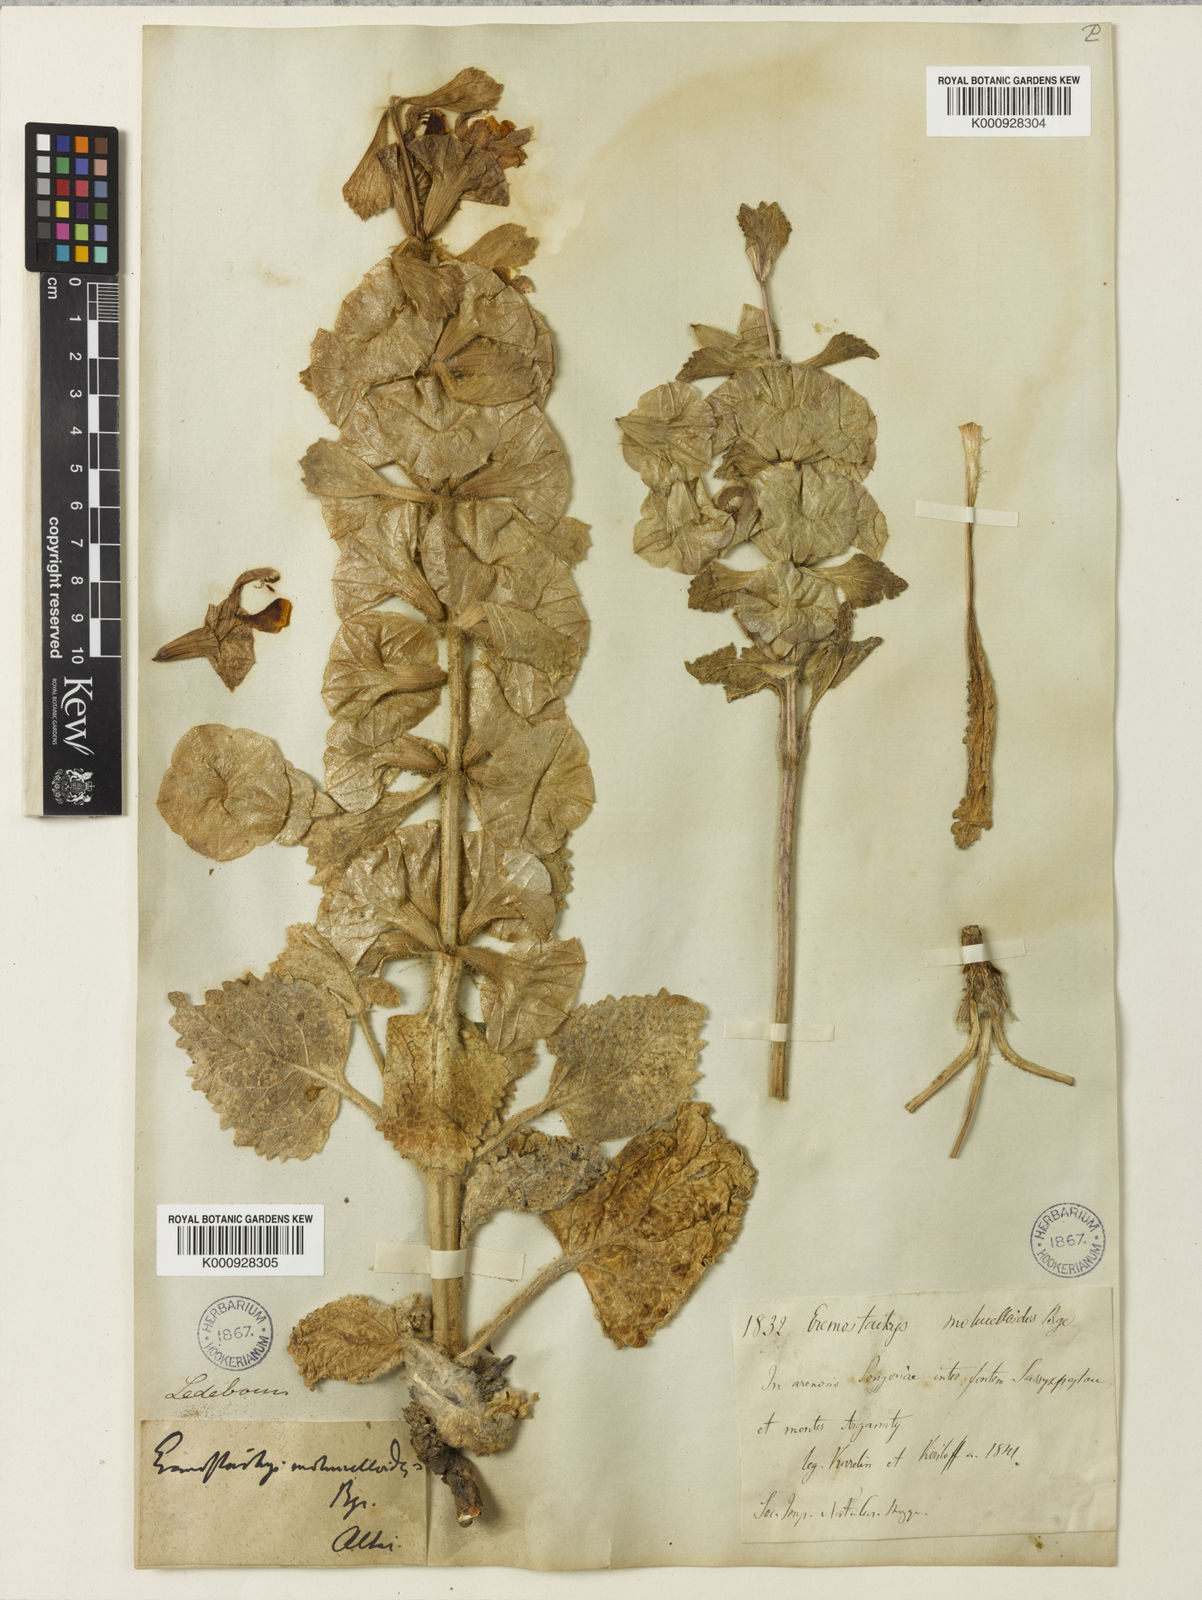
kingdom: Plantae
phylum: Tracheophyta
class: Magnoliopsida
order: Lamiales
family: Lamiaceae
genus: Phlomoides
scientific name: Phlomoides molucelloides
